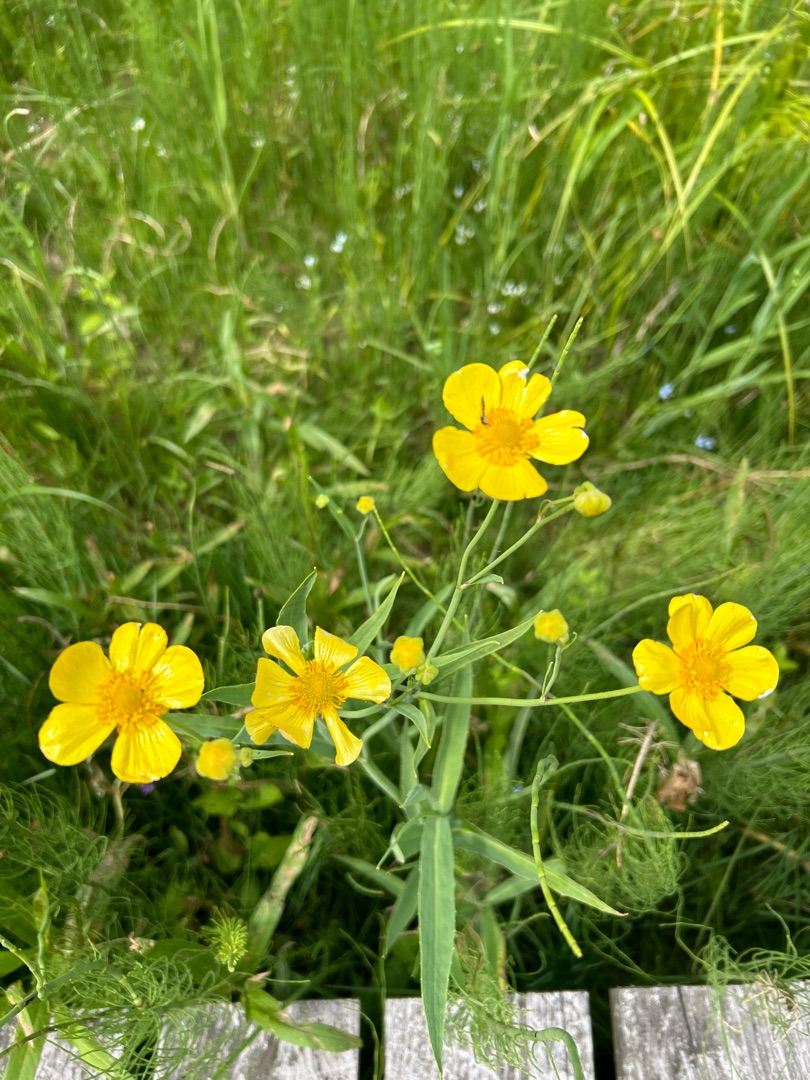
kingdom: Plantae
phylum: Tracheophyta
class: Magnoliopsida
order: Ranunculales
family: Ranunculaceae
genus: Ranunculus
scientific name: Ranunculus lingua
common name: Langbladet ranunkel
